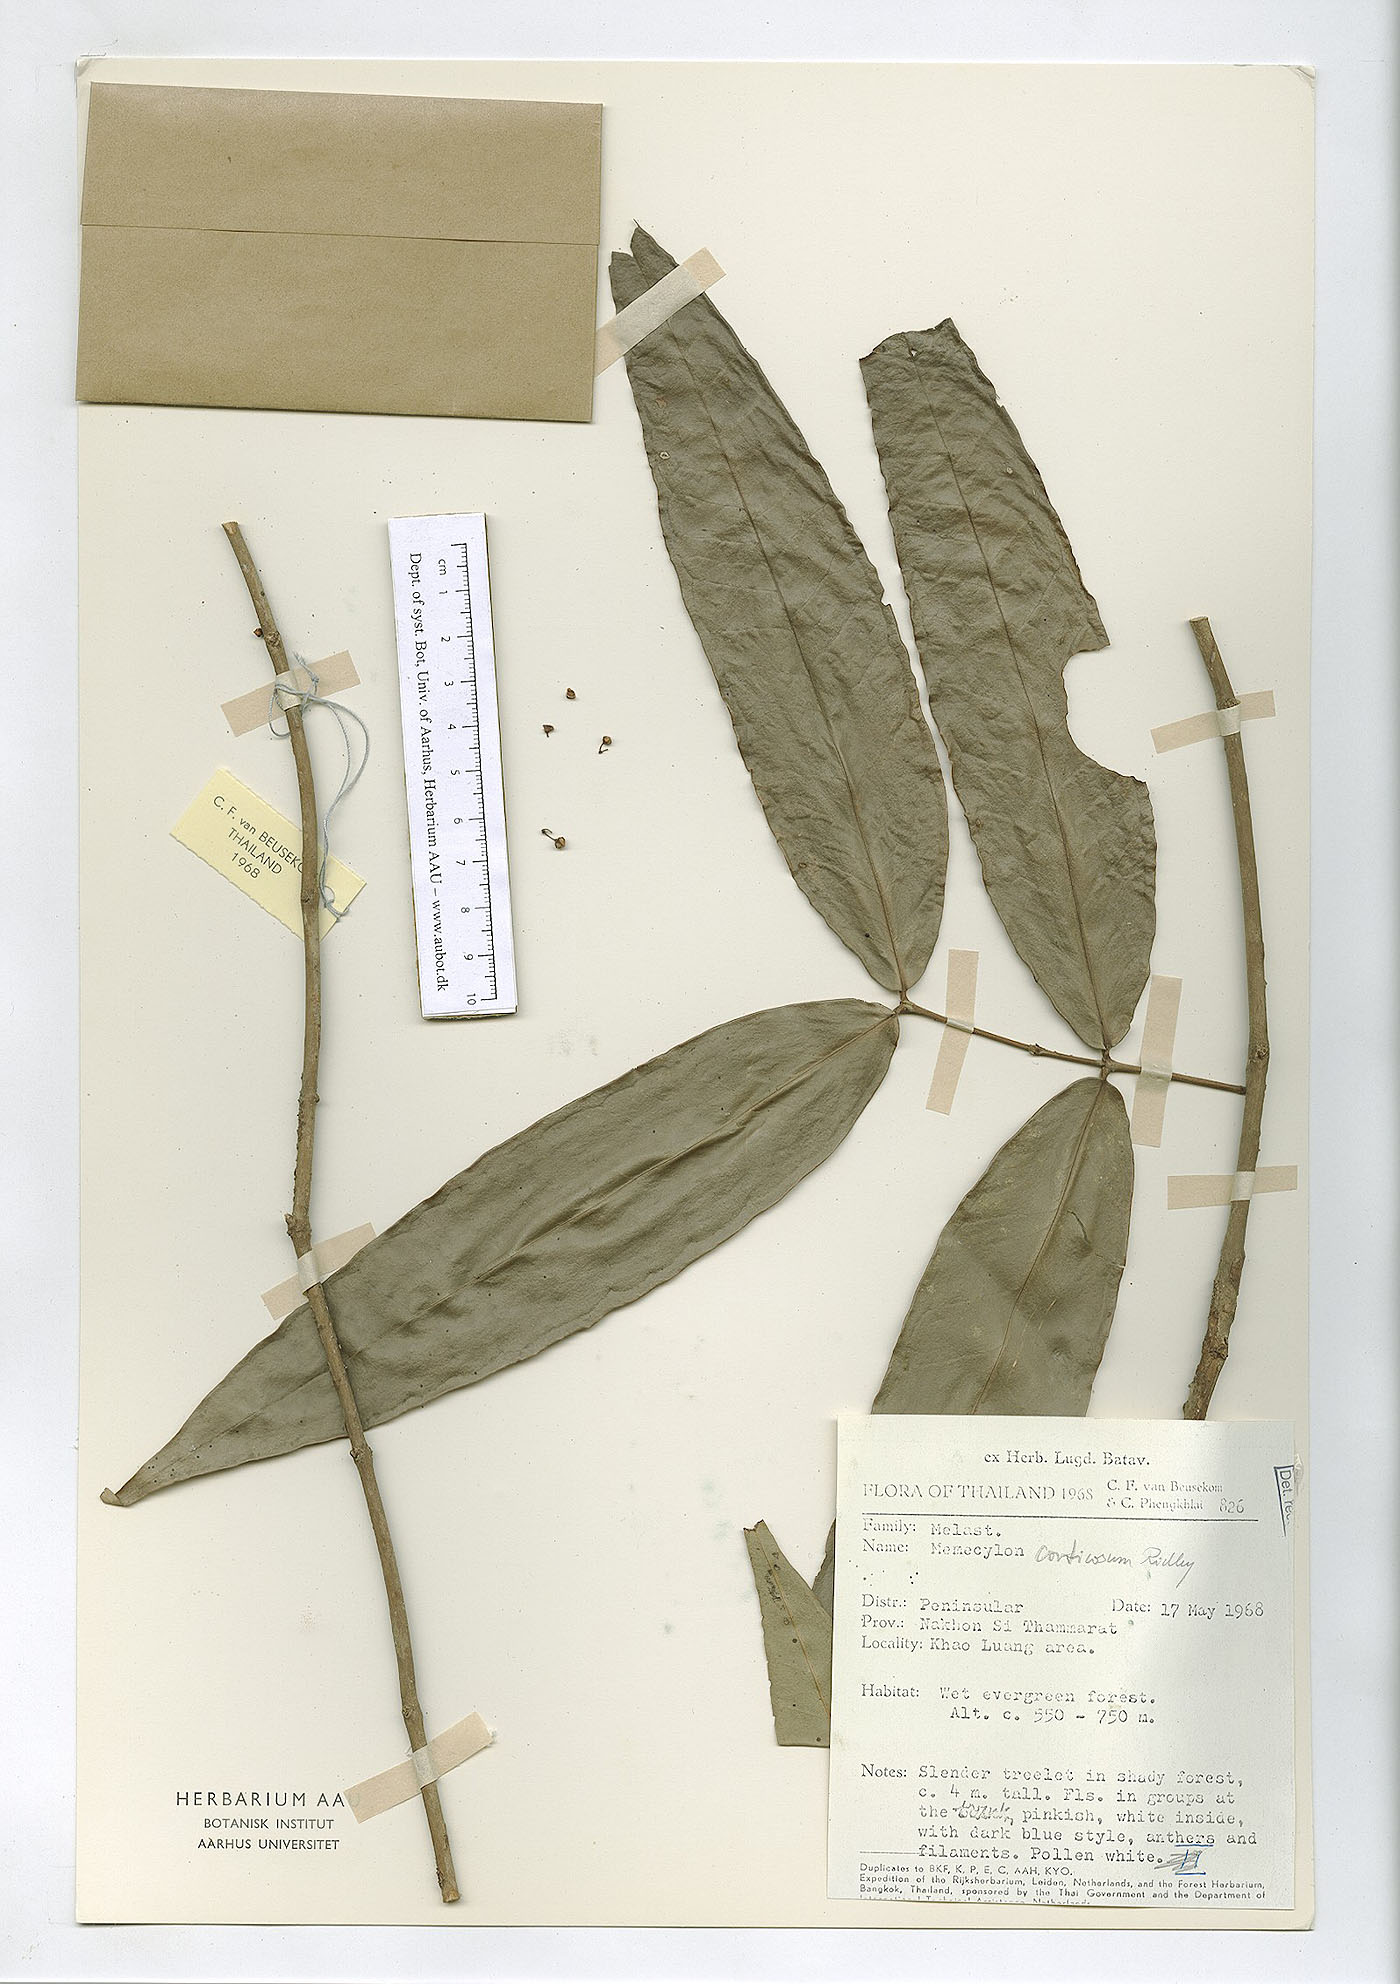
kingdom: Plantae
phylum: Tracheophyta
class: Magnoliopsida
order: Myrtales
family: Melastomataceae
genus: Memecylon
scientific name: Memecylon corticosum
